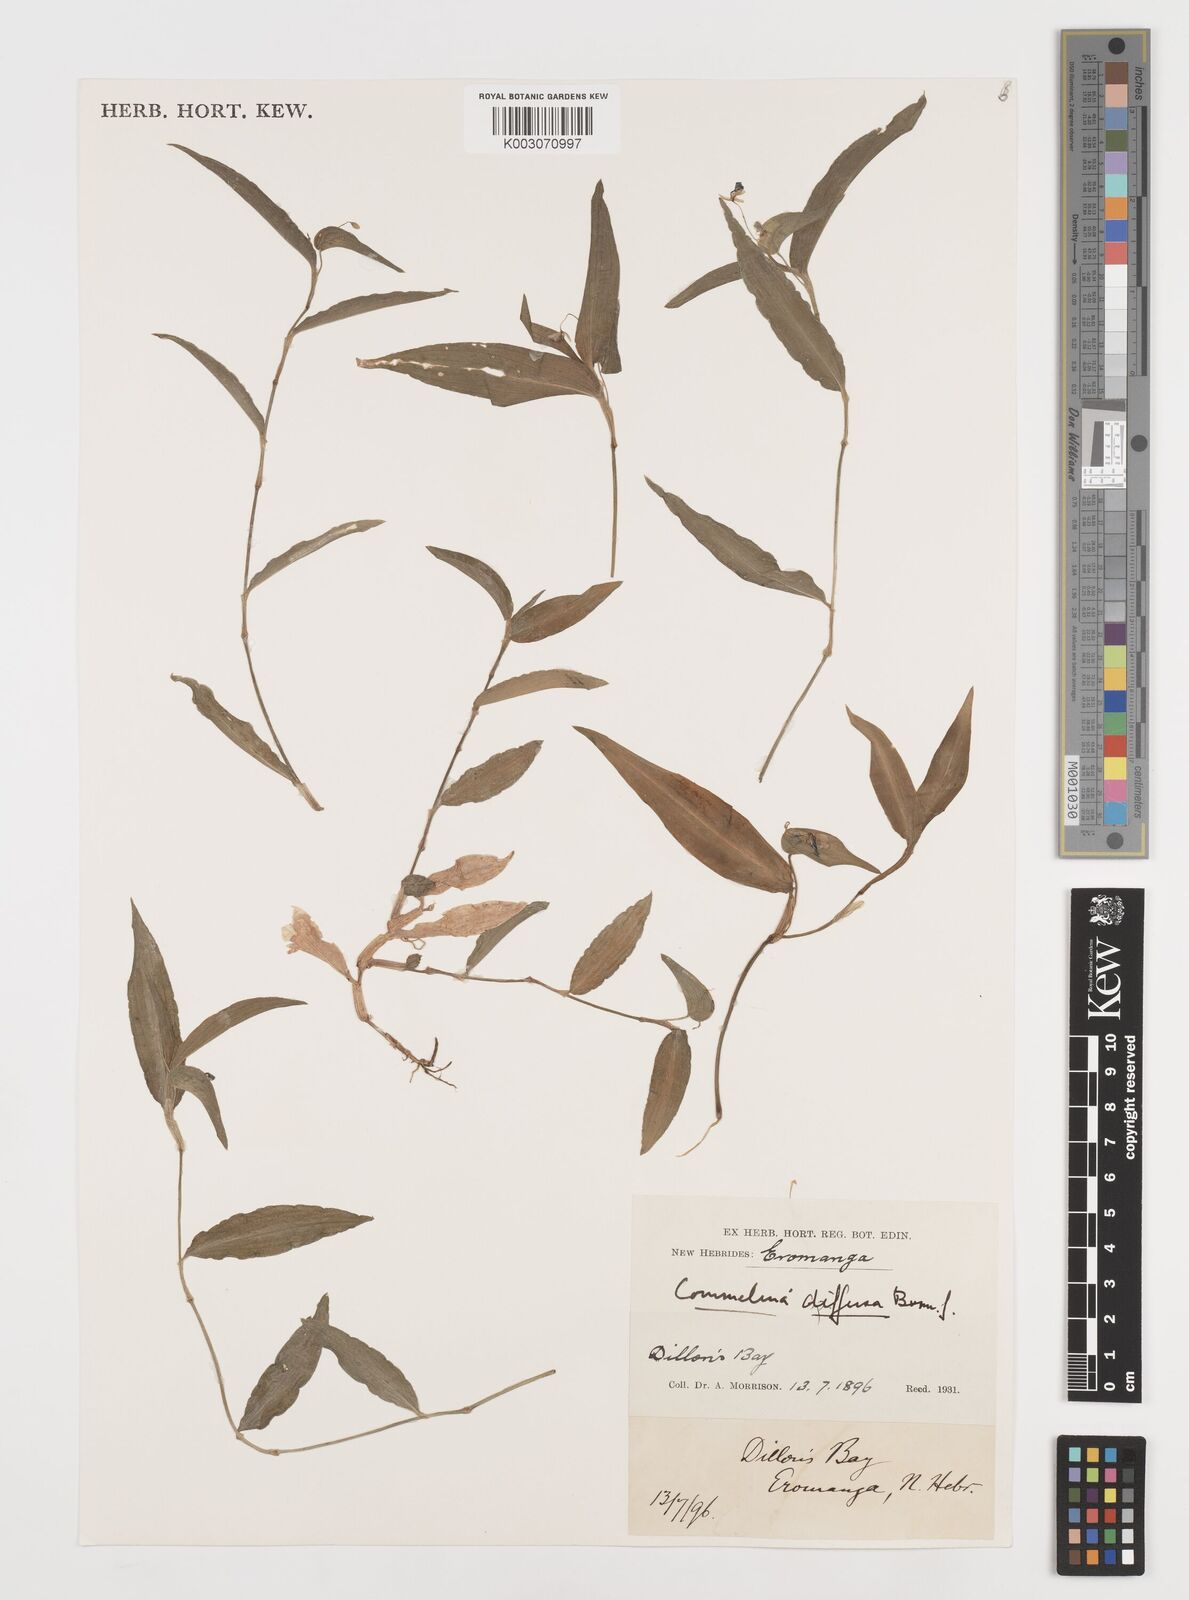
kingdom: Plantae
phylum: Tracheophyta
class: Liliopsida
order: Commelinales
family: Commelinaceae
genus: Commelina
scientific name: Commelina diffusa
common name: Climbing dayflower
